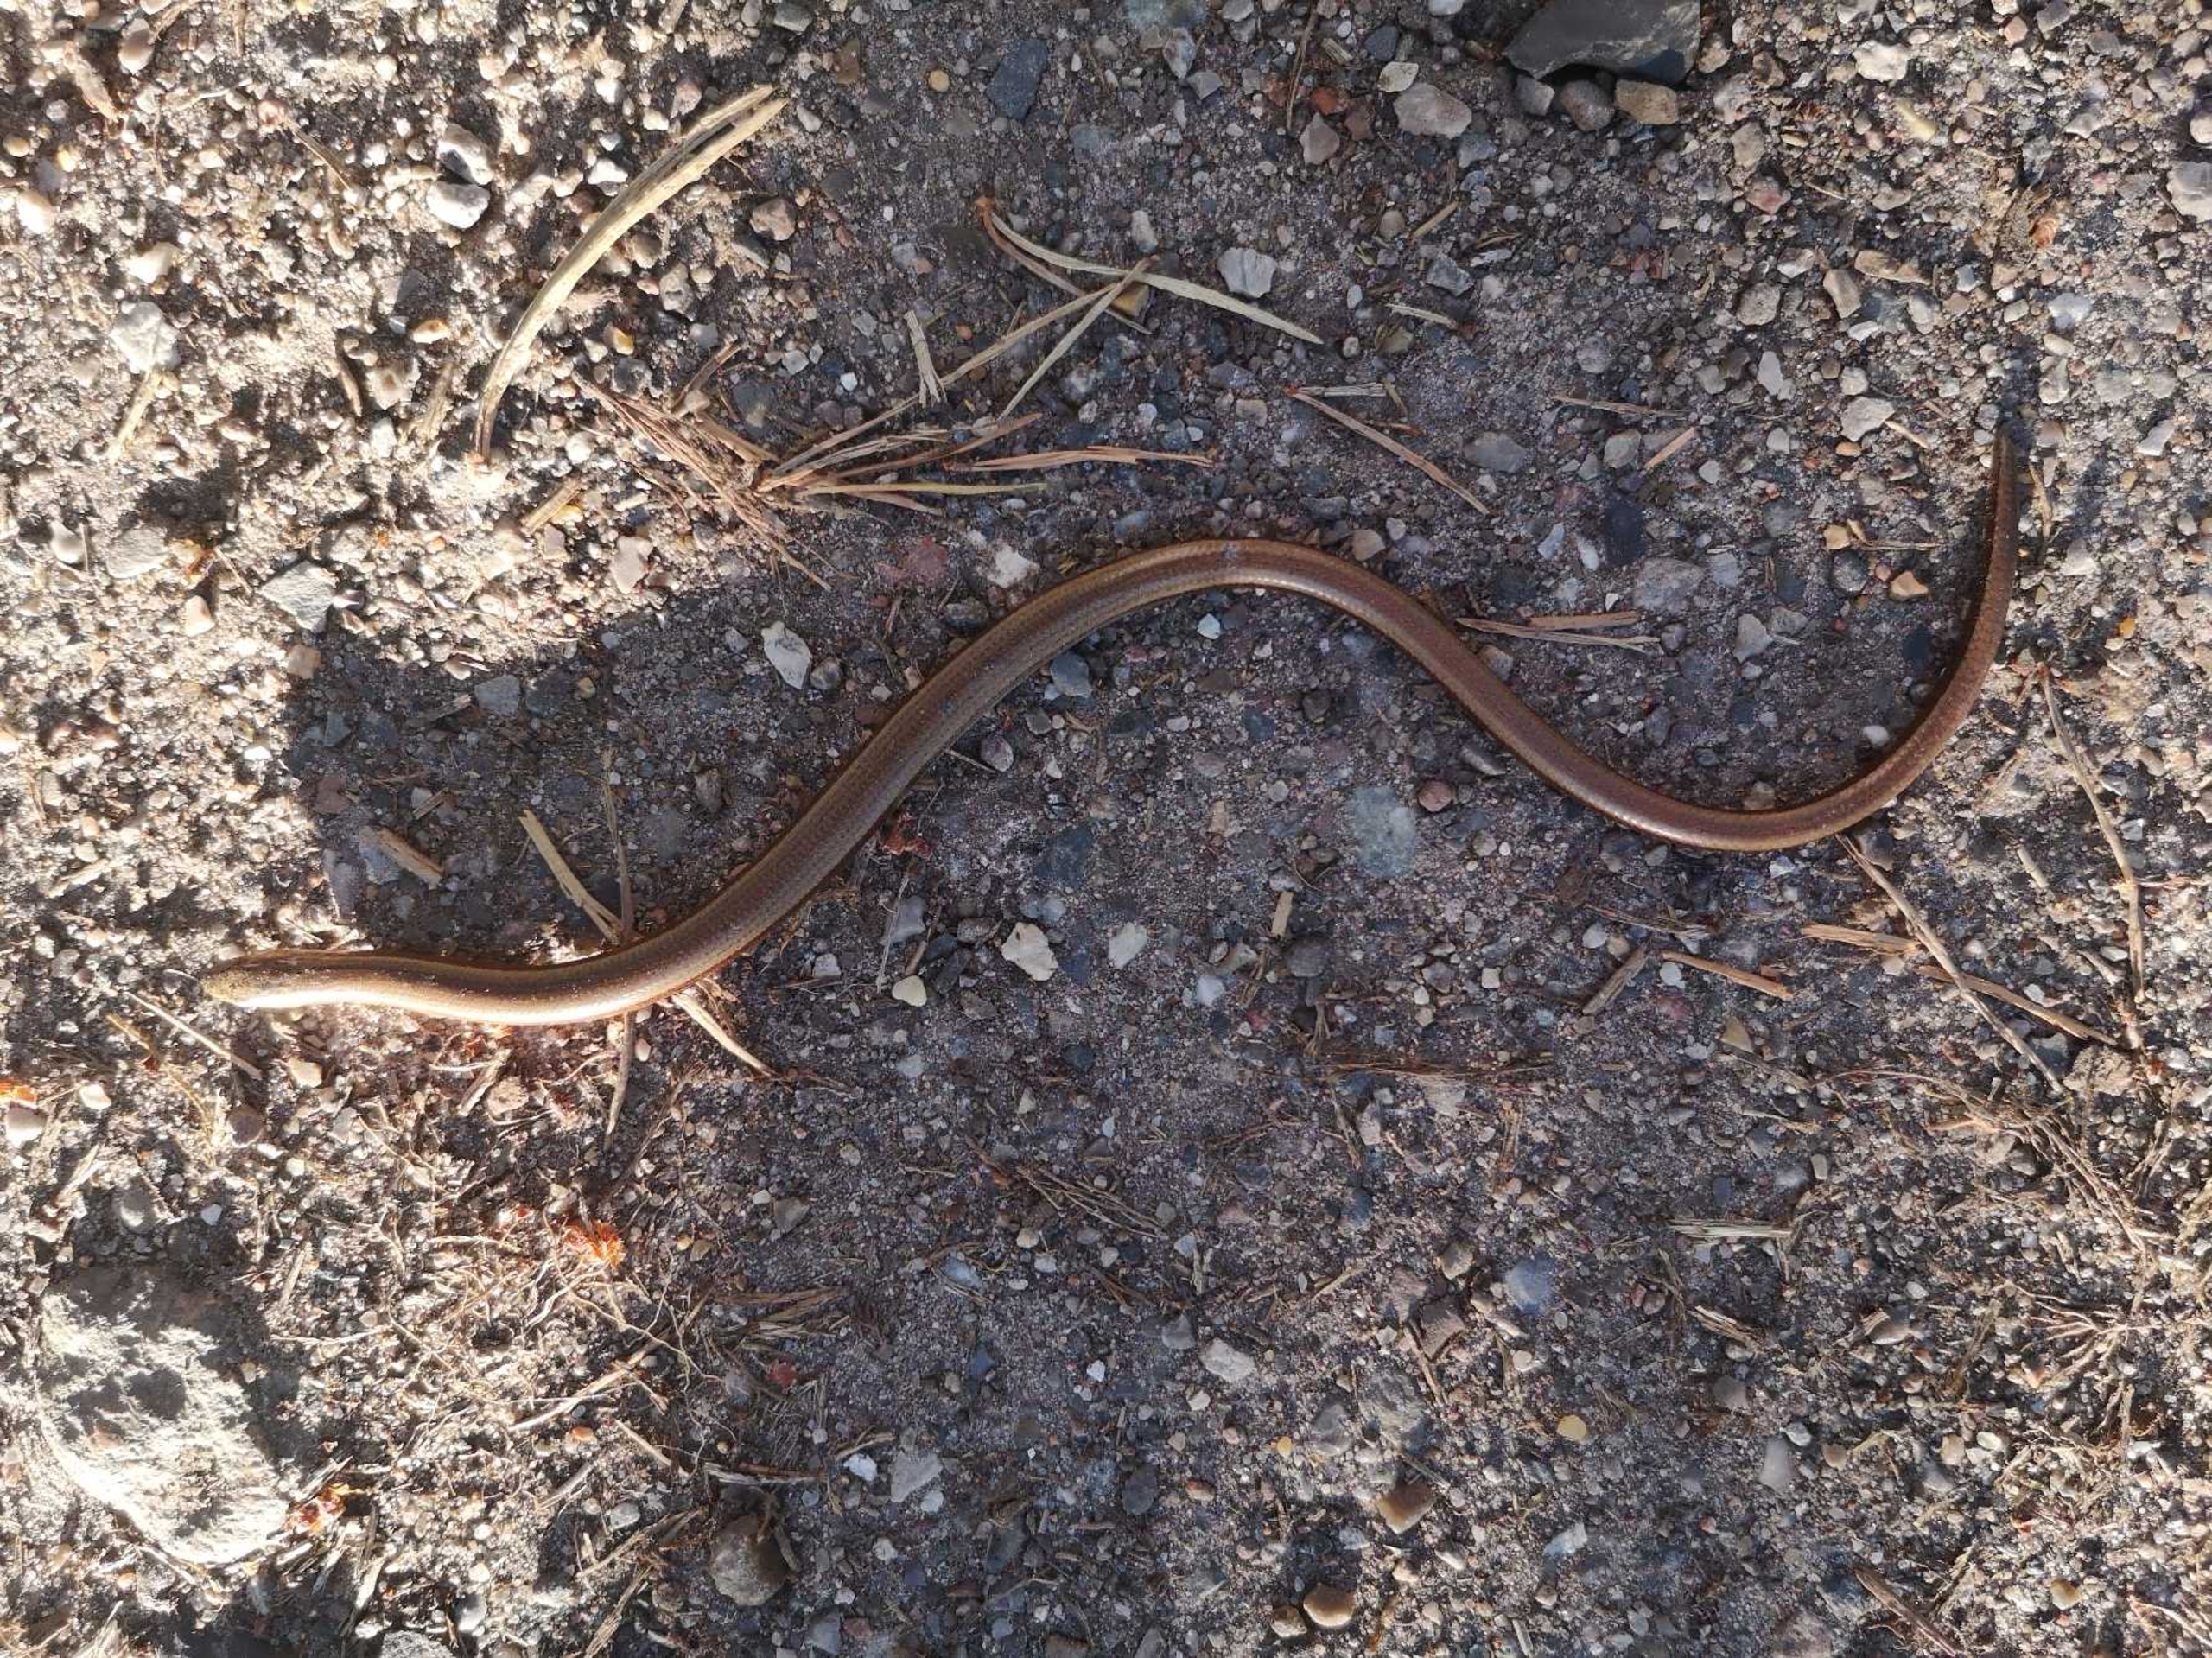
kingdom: Animalia
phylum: Chordata
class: Squamata
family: Anguidae
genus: Anguis
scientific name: Anguis fragilis
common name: Stålorm
